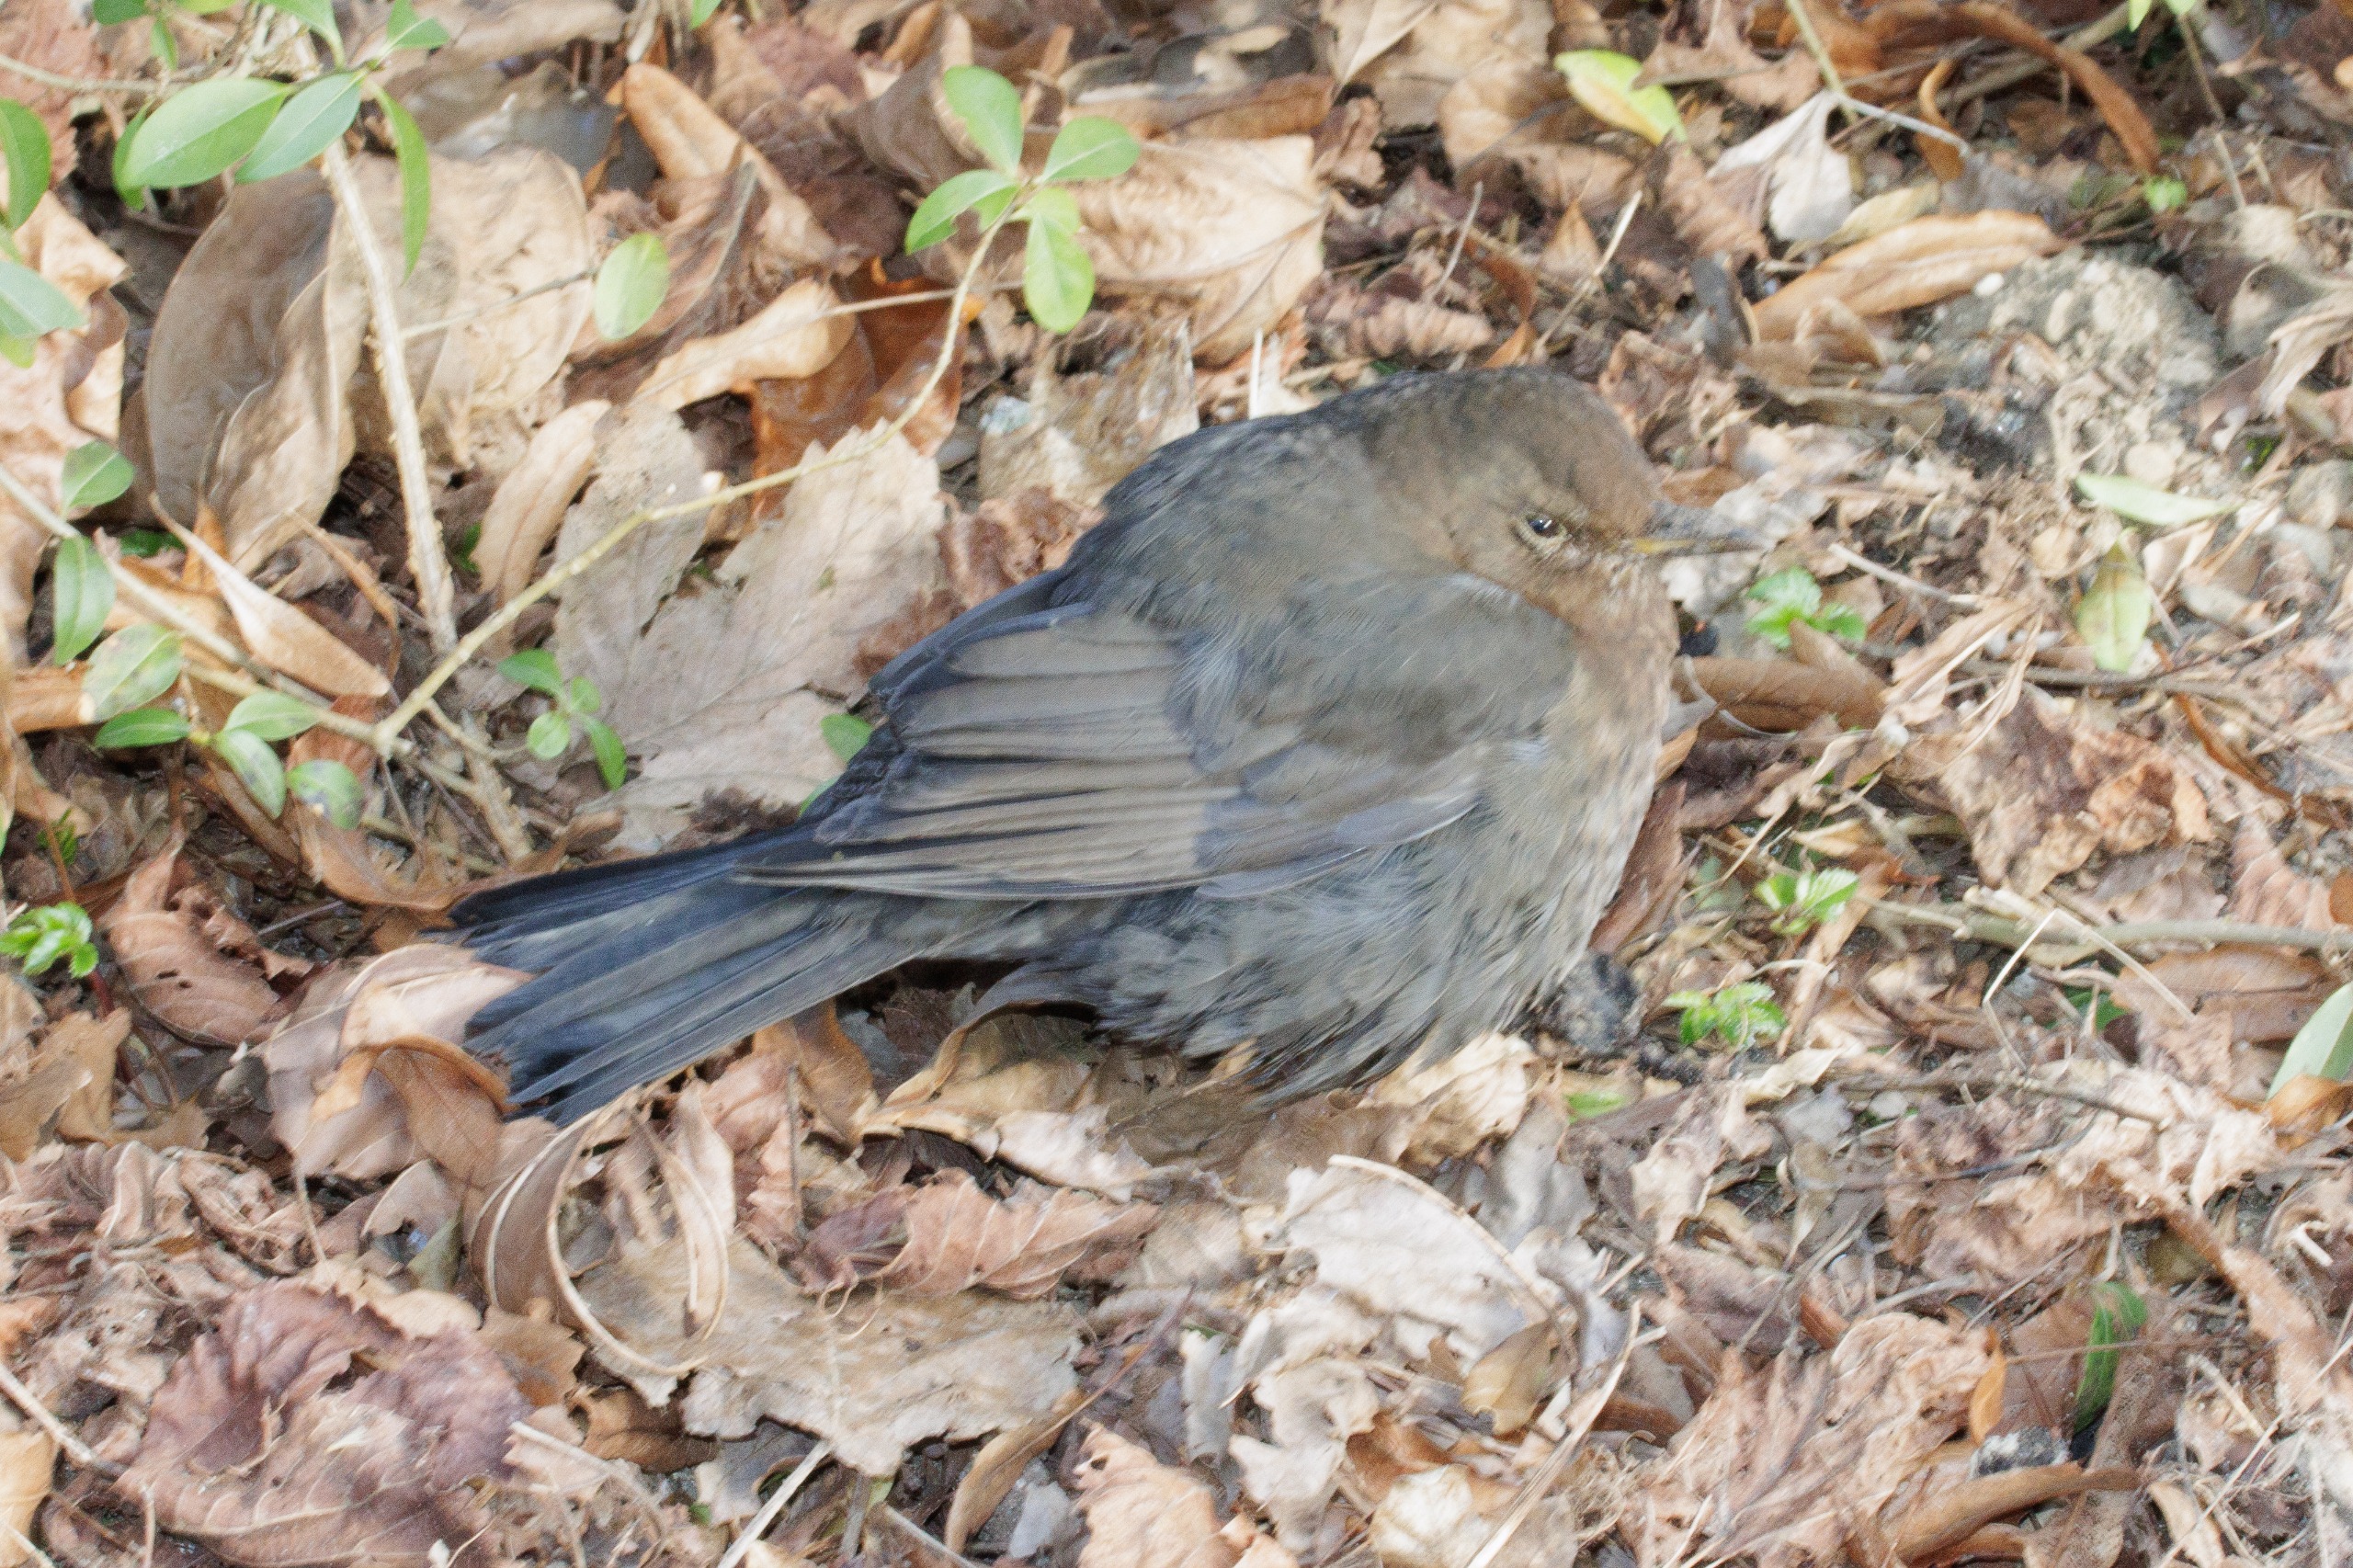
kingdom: Animalia
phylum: Chordata
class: Aves
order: Passeriformes
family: Turdidae
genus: Turdus
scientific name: Turdus merula
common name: Solsort
